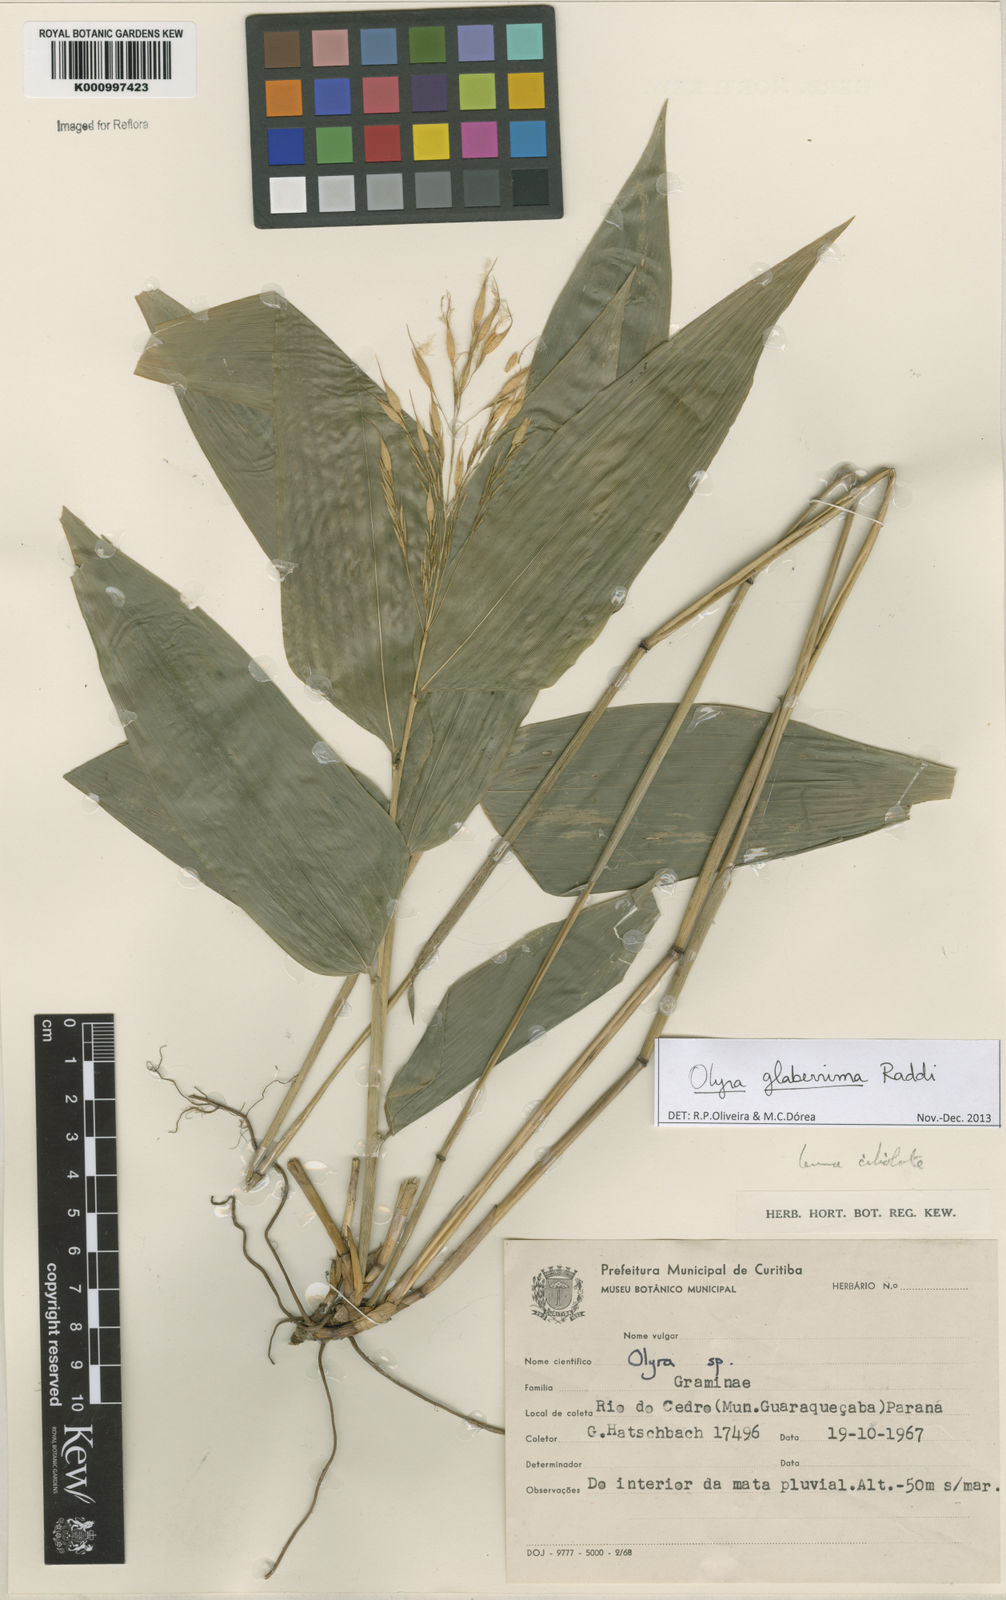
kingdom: Plantae
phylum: Tracheophyta
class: Liliopsida
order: Poales
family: Poaceae
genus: Olyra
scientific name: Olyra glaberrima
